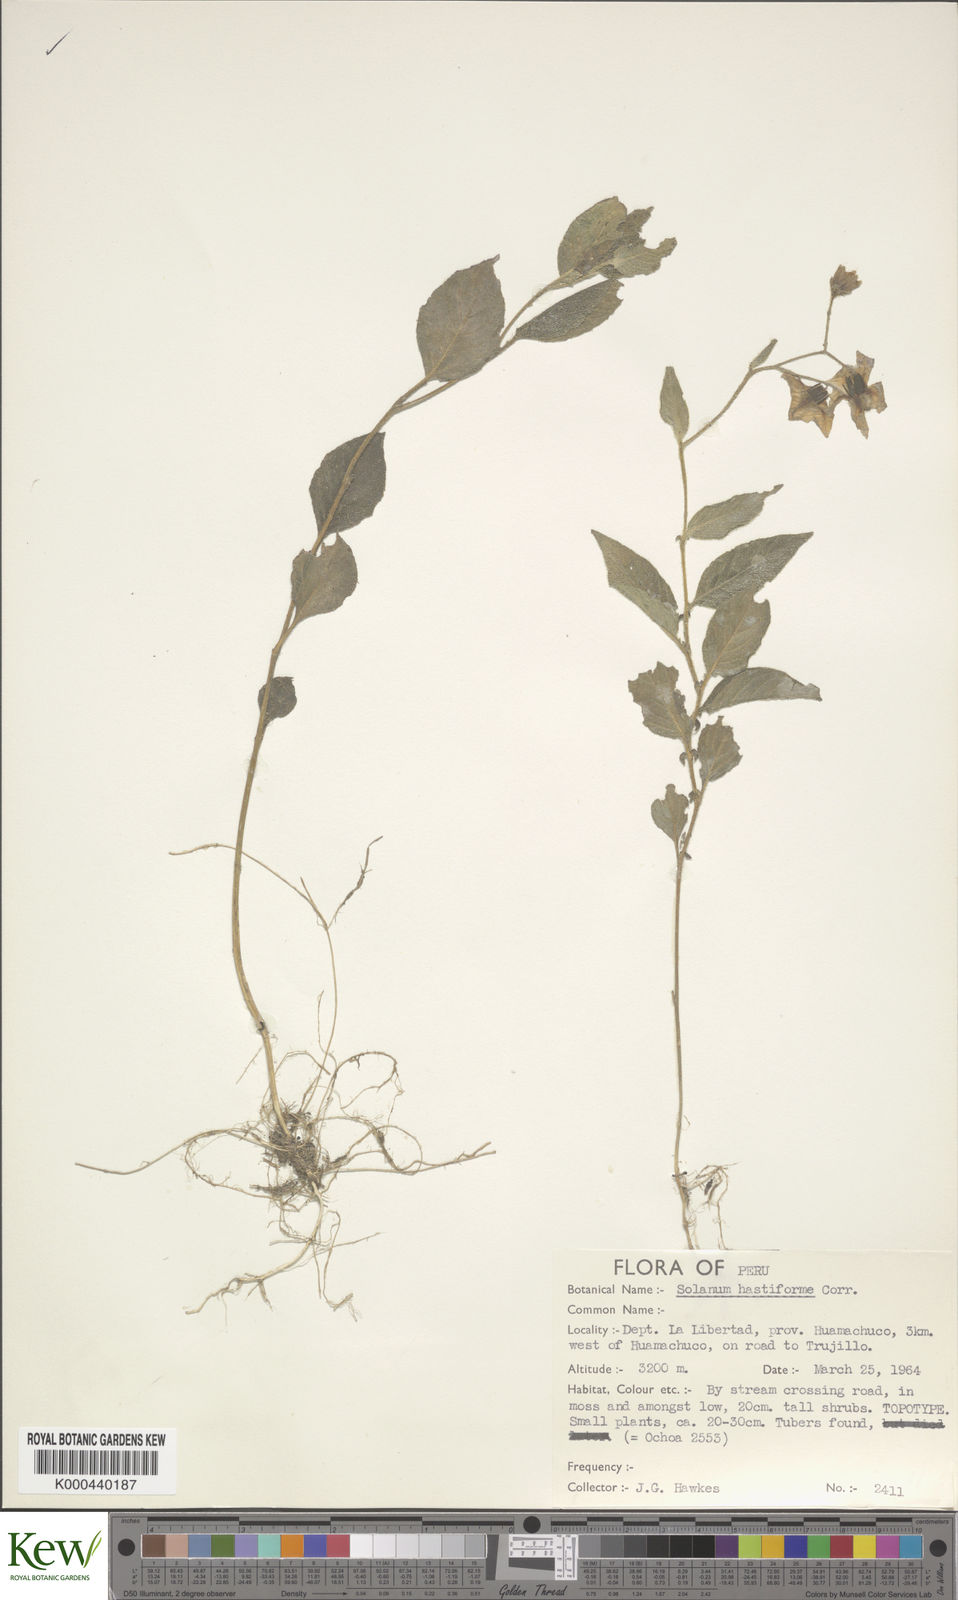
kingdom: Plantae
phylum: Tracheophyta
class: Magnoliopsida
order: Solanales
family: Solanaceae
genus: Solanum
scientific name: Solanum hastiforme
